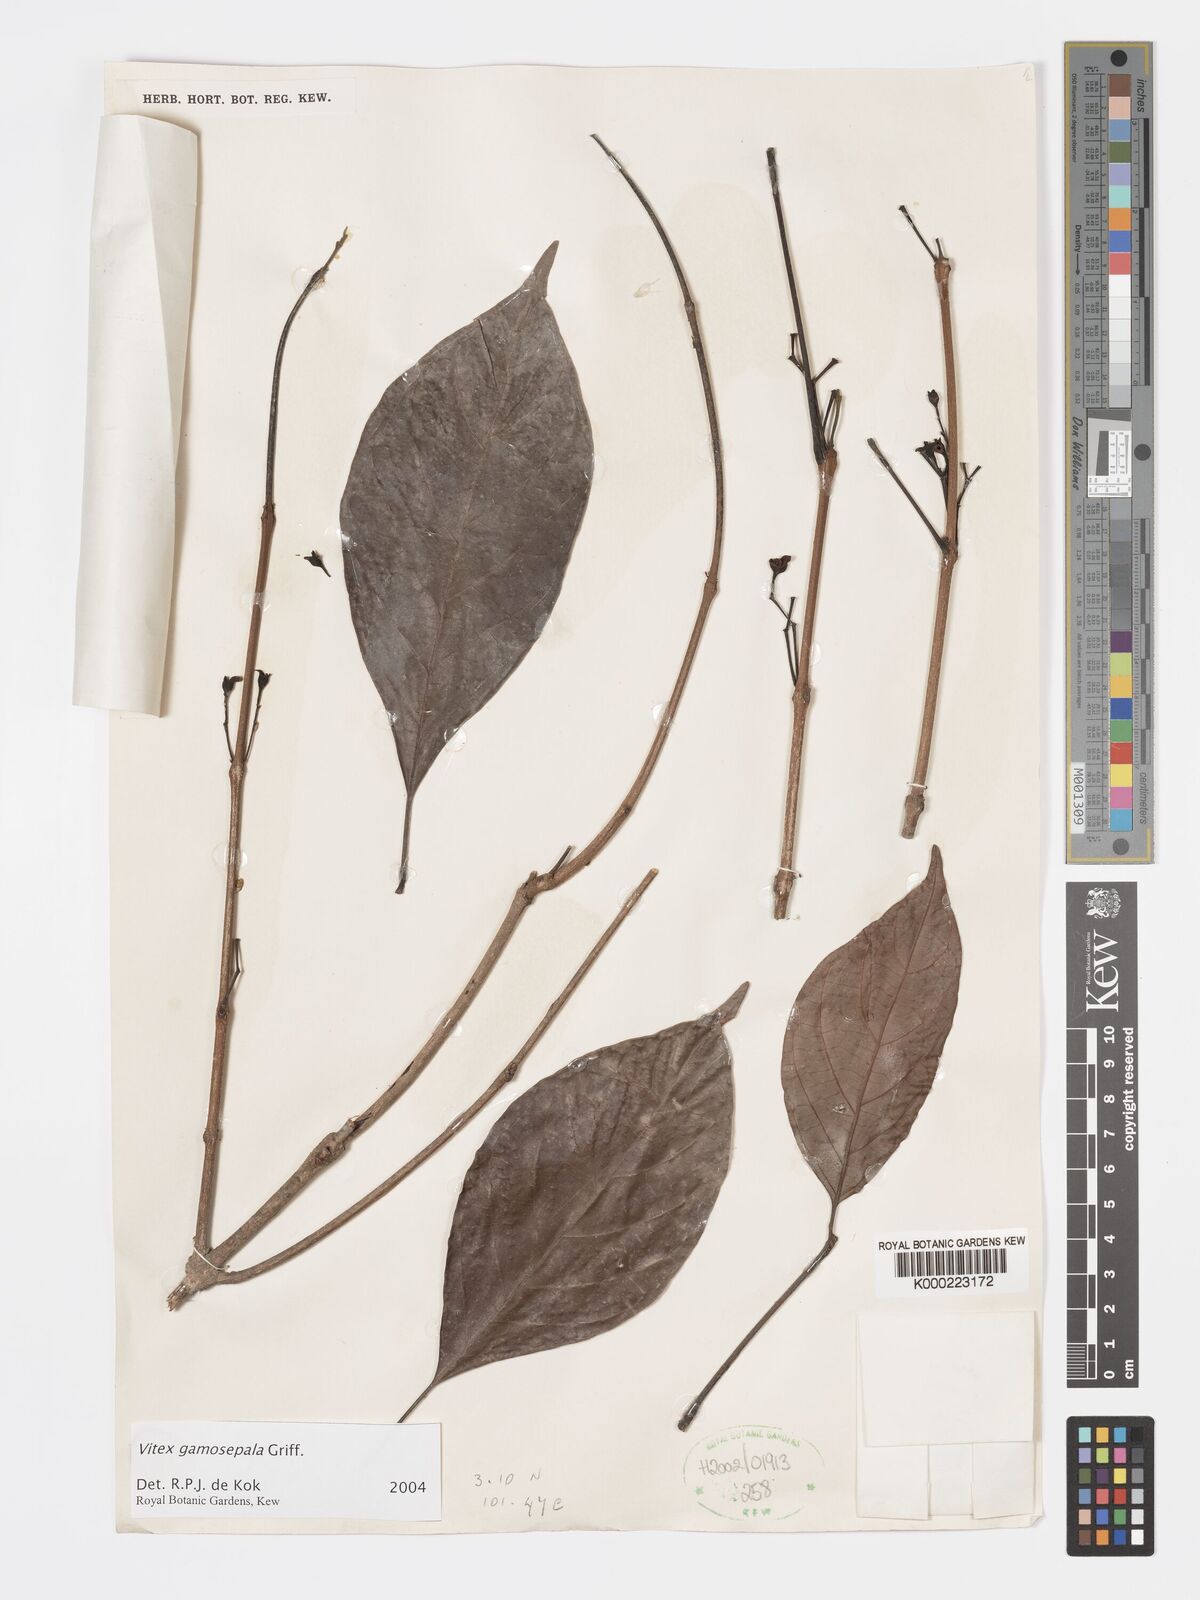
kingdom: Plantae
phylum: Tracheophyta
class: Magnoliopsida
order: Lamiales
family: Lamiaceae
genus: Vitex
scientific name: Vitex gamosepala
